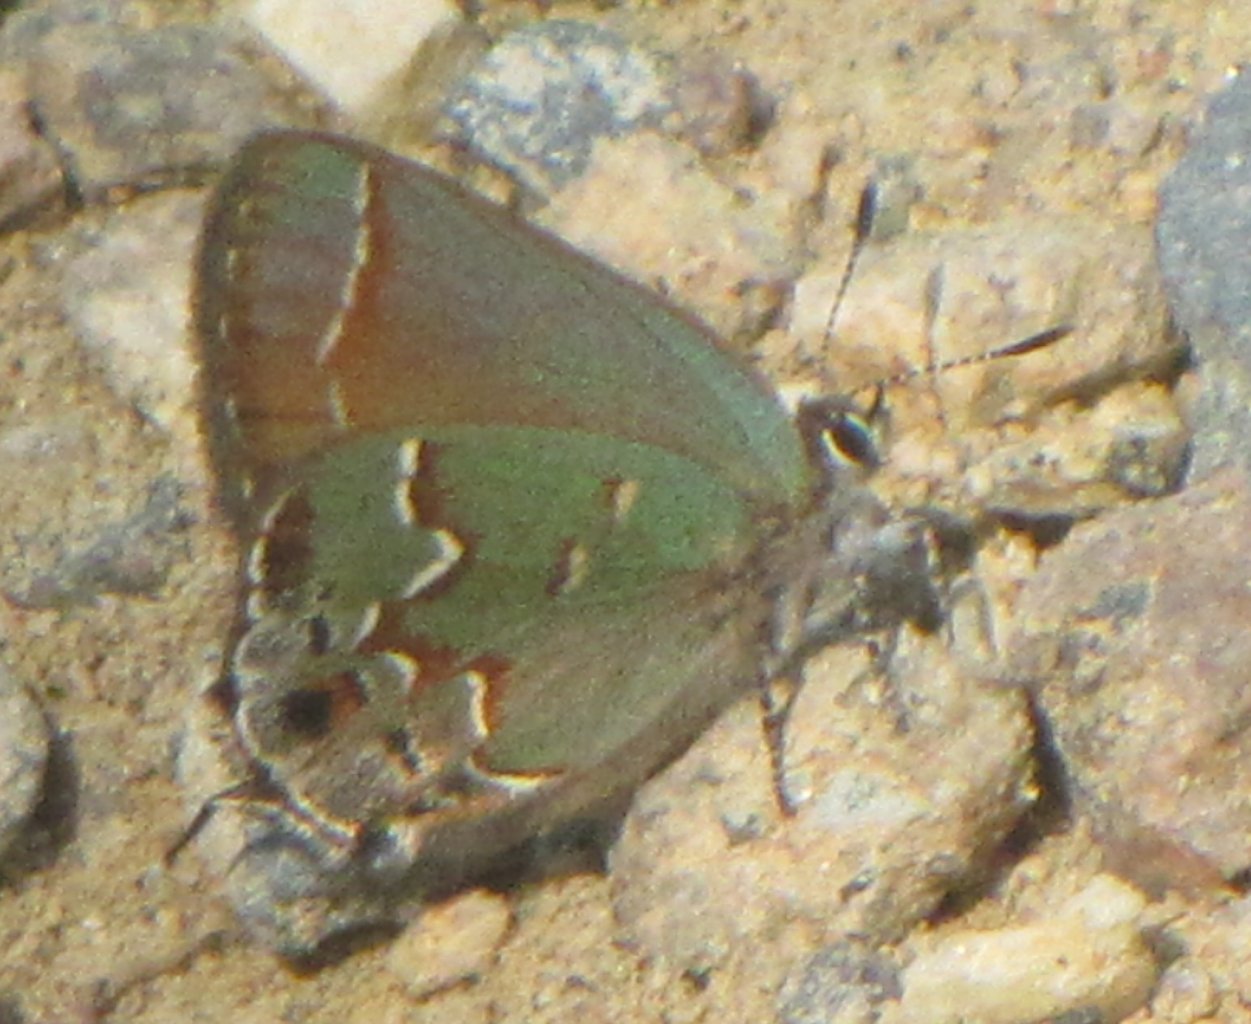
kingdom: Animalia
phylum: Arthropoda
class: Insecta
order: Lepidoptera
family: Lycaenidae
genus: Mitoura
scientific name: Mitoura gryneus
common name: Juniper Hairstreak
